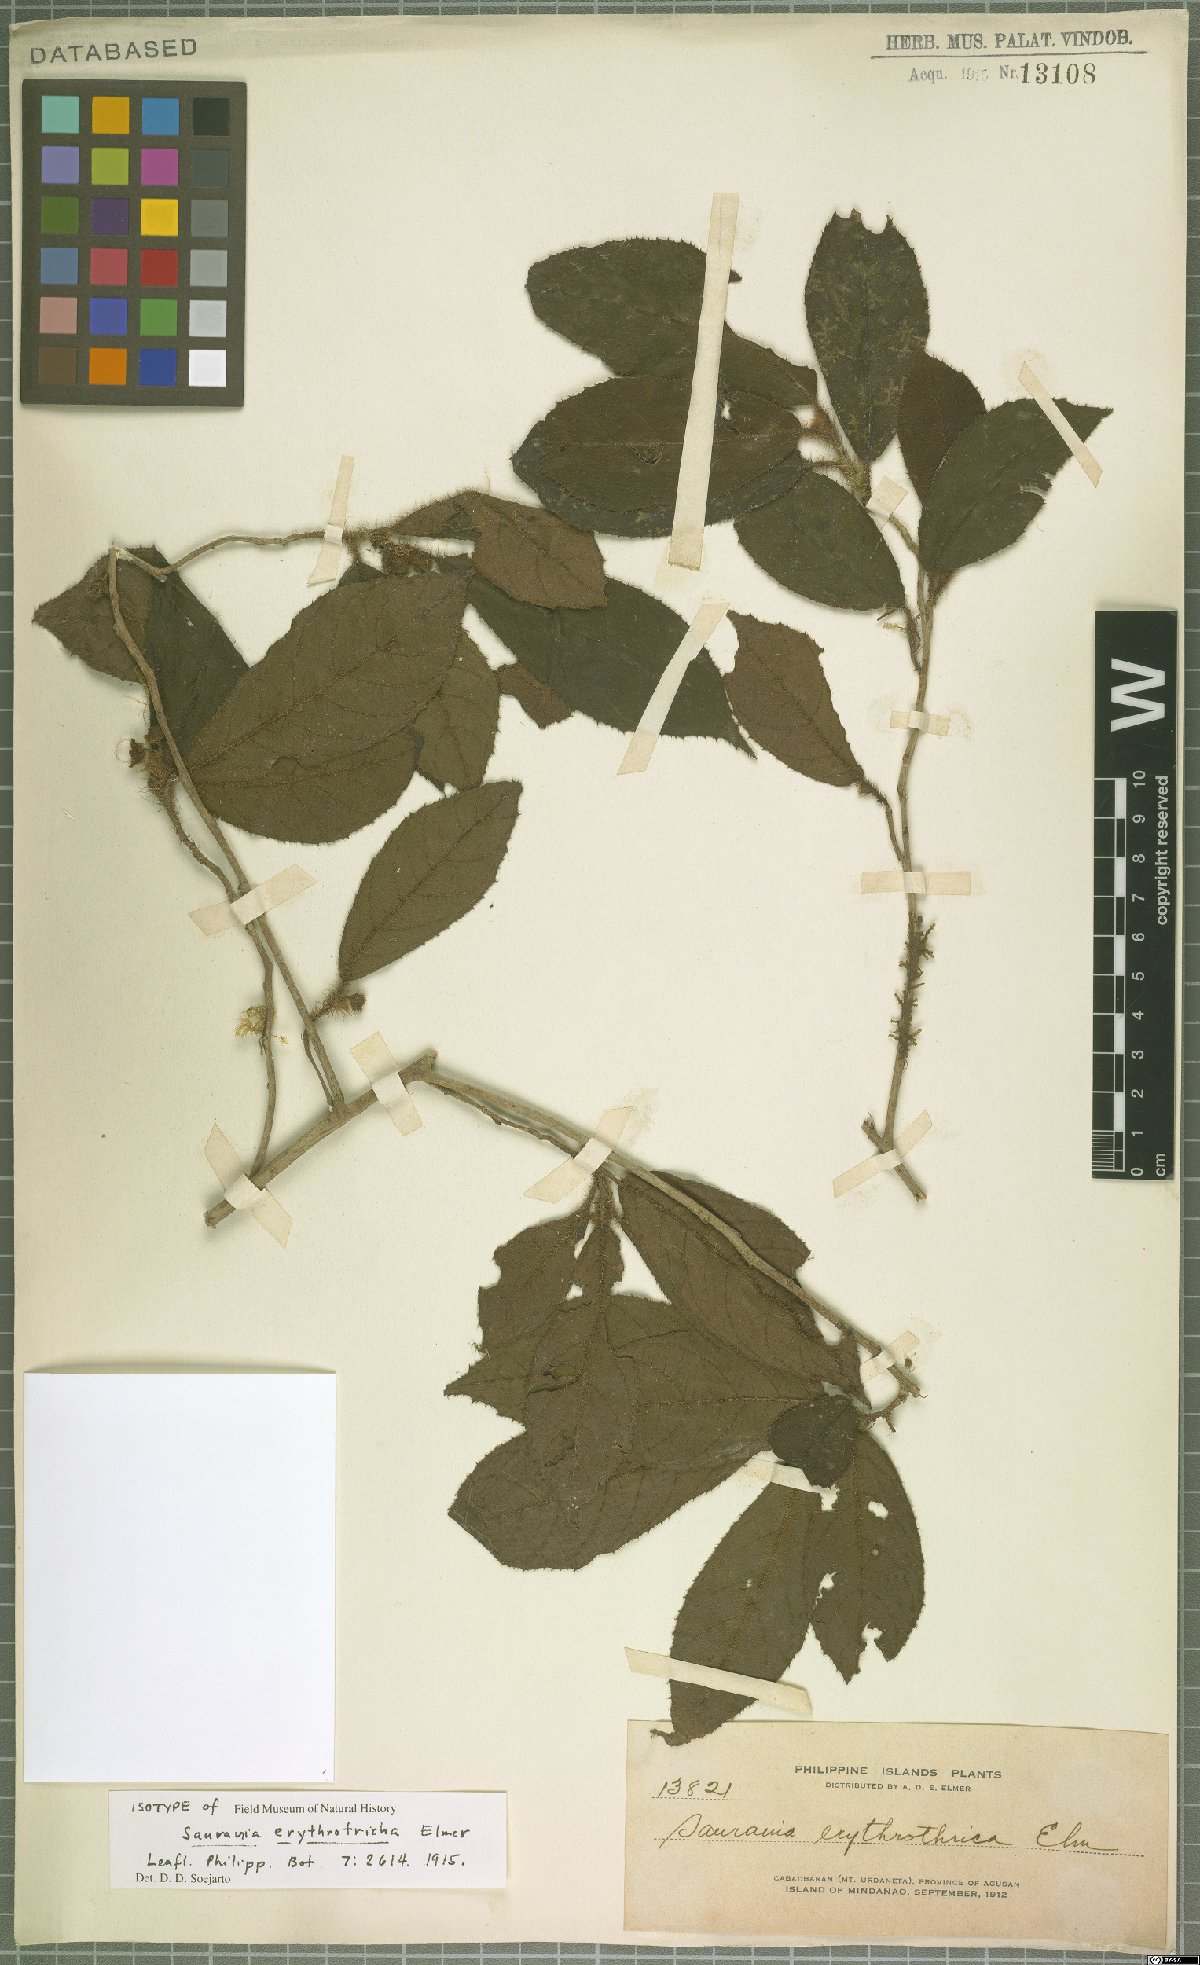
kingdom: Plantae
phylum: Tracheophyta
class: Magnoliopsida
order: Ericales
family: Actinidiaceae
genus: Saurauia
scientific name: Saurauia erythrotricha
